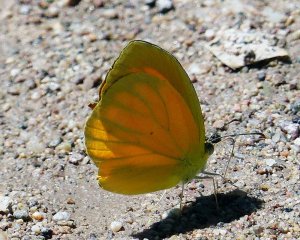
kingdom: Animalia
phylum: Arthropoda
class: Insecta
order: Lepidoptera
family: Pieridae
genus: Abaeis
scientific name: Abaeis nicippe
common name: Sleepy Orange
